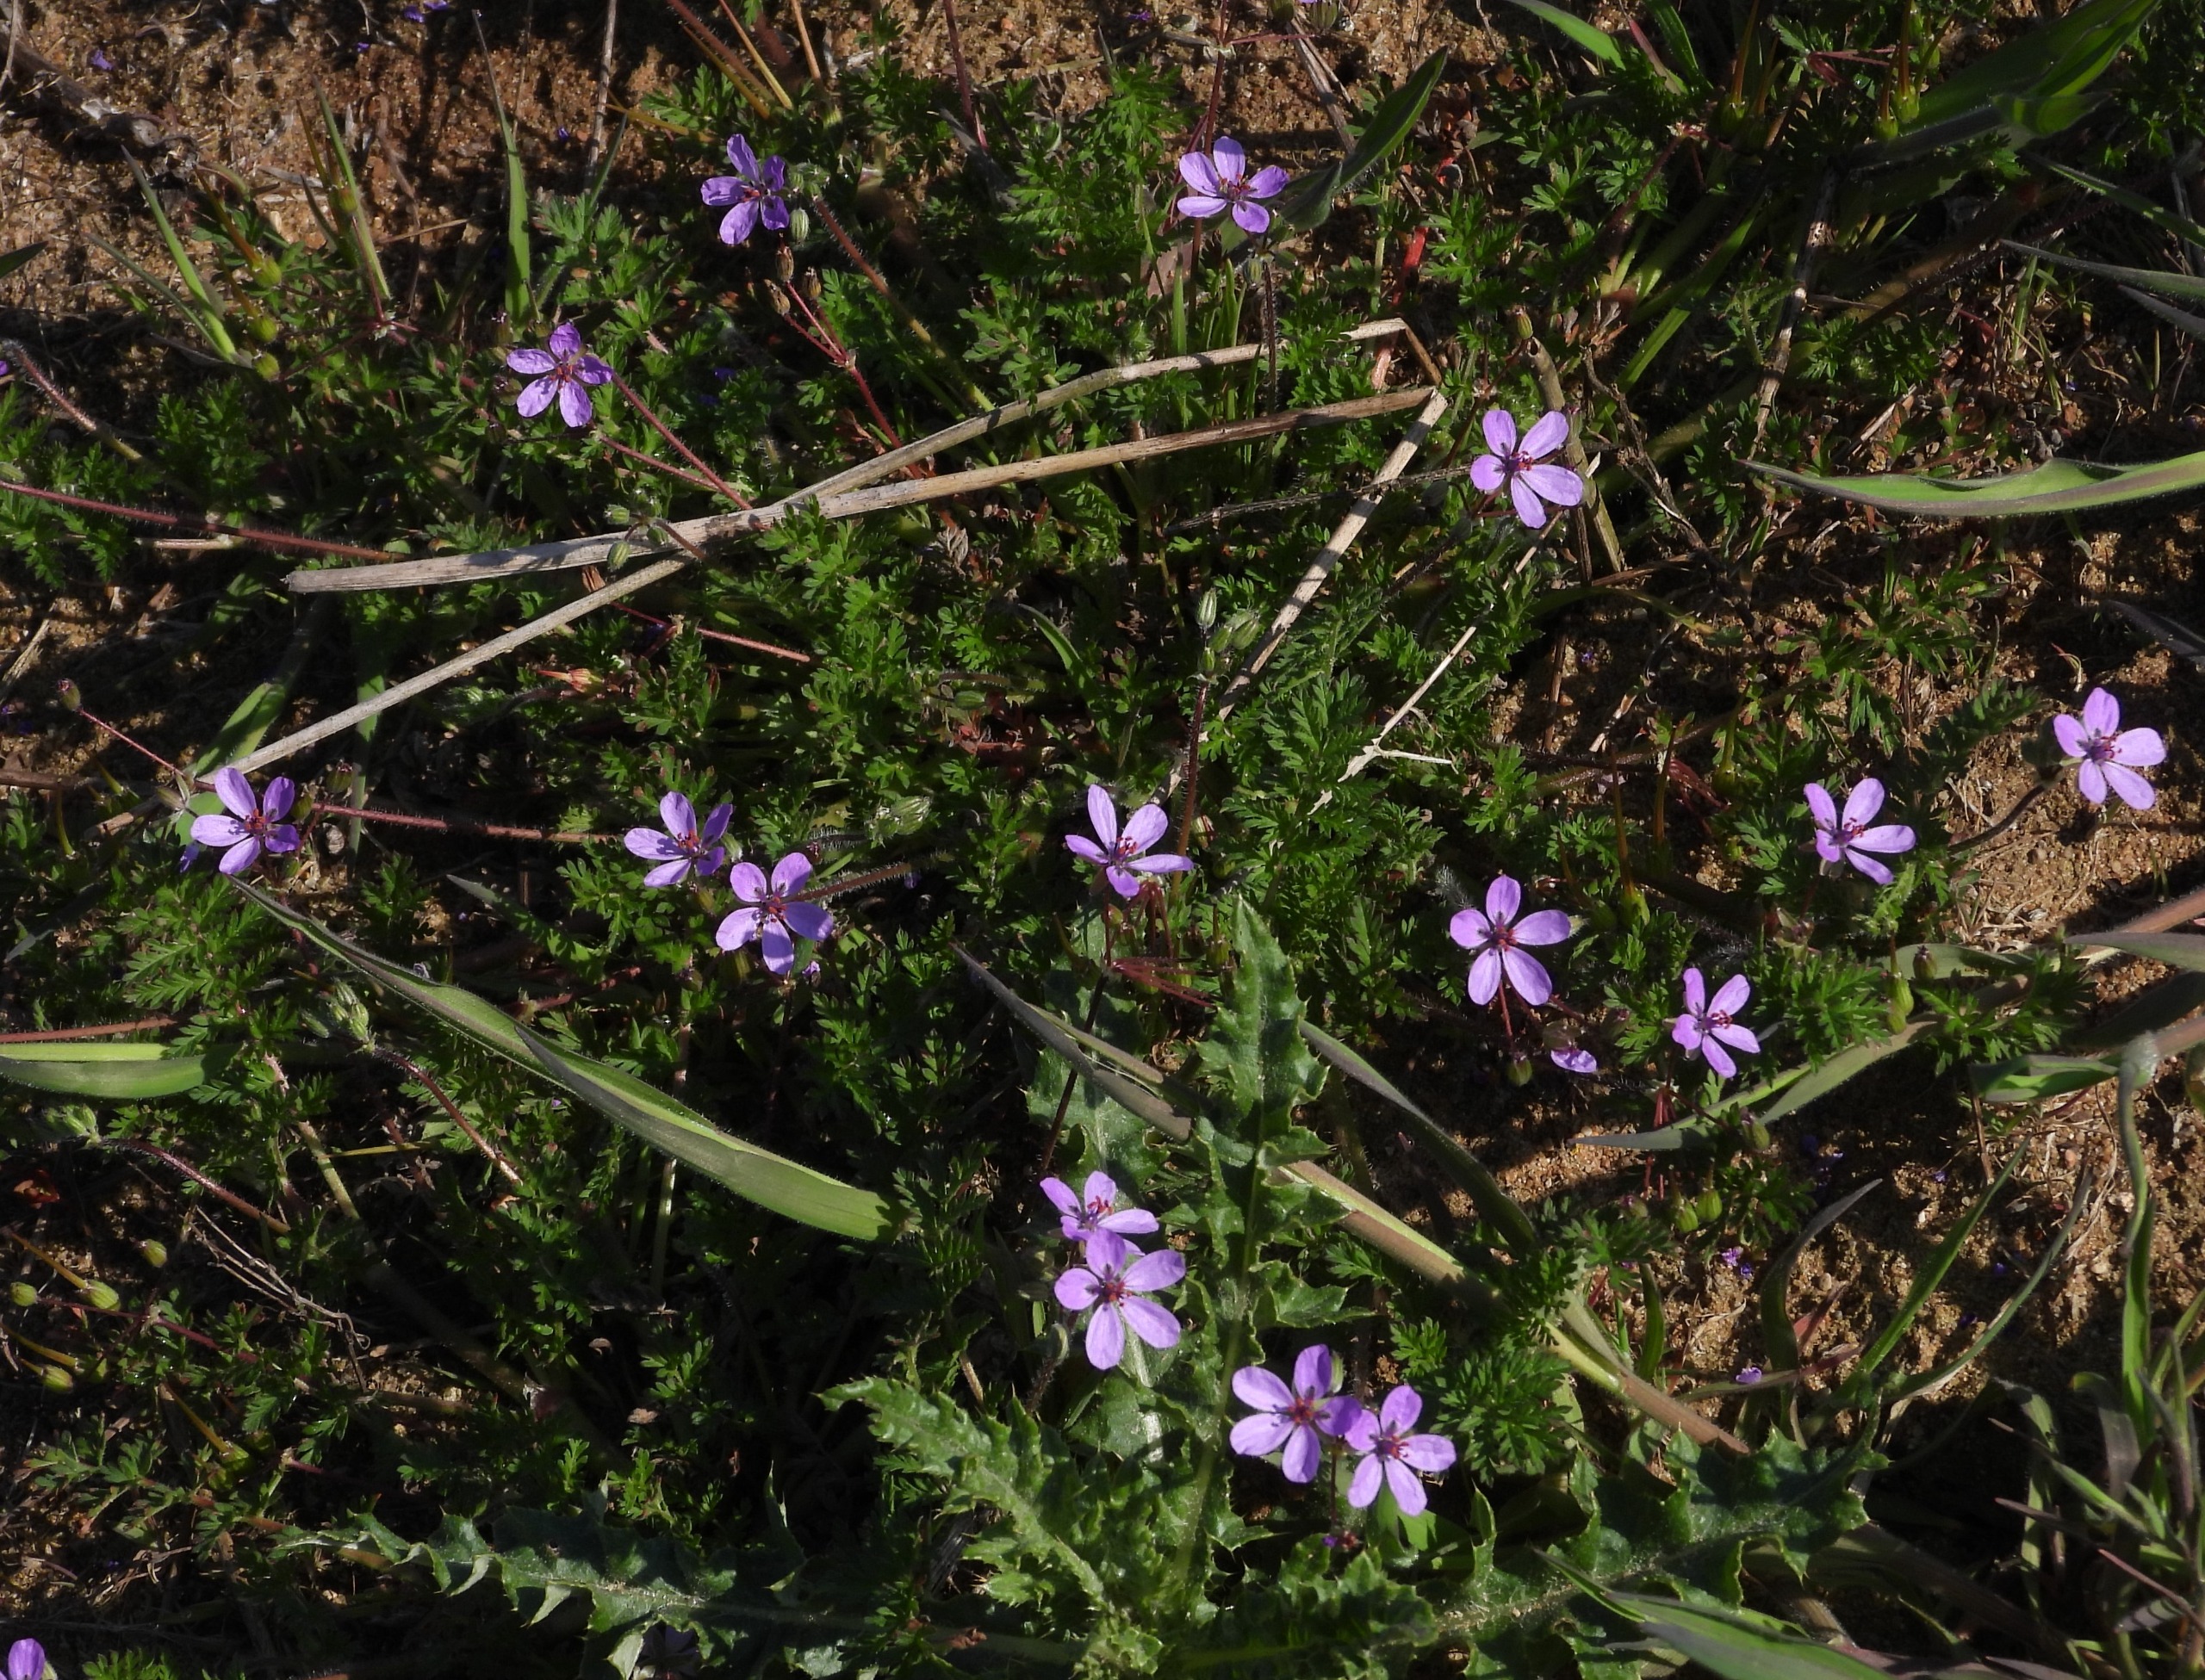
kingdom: Plantae
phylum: Tracheophyta
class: Magnoliopsida
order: Geraniales
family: Geraniaceae
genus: Erodium
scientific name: Erodium cicutarium
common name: Hejrenæb
